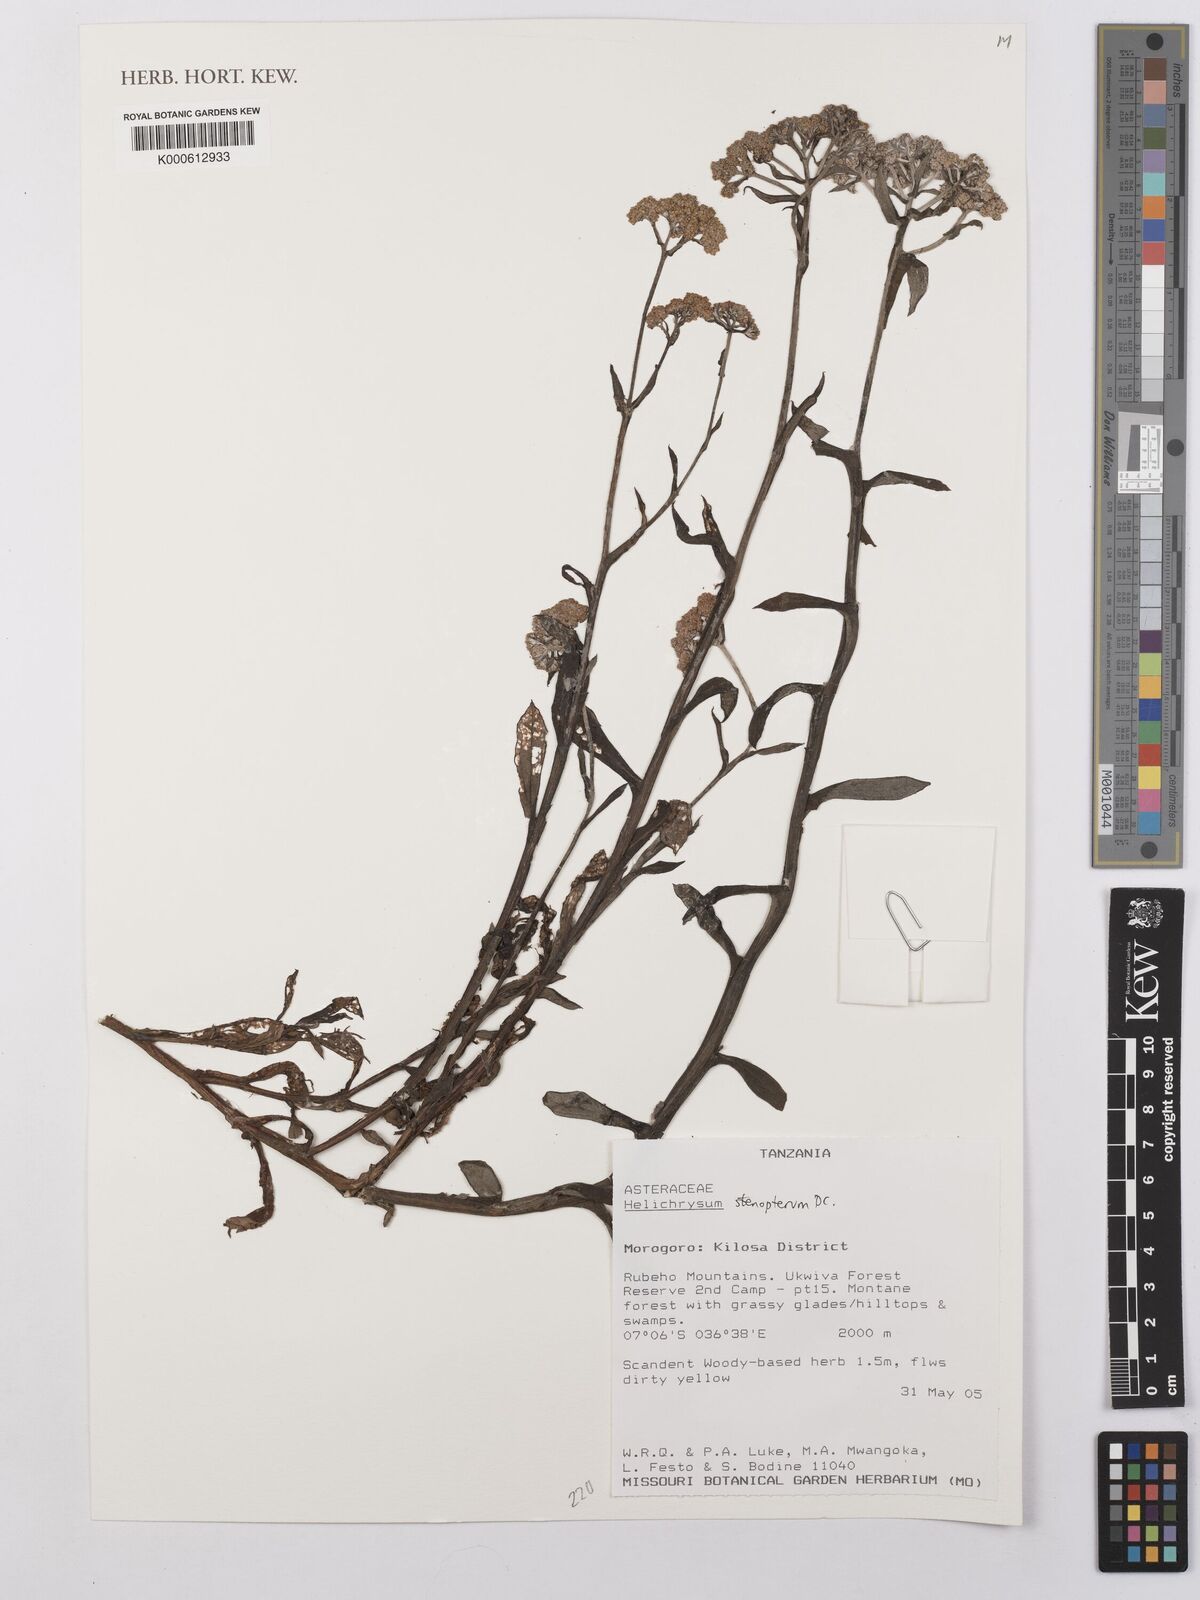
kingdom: Plantae
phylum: Tracheophyta
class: Magnoliopsida
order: Asterales
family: Asteraceae
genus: Helichrysum
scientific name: Helichrysum stenopterum
